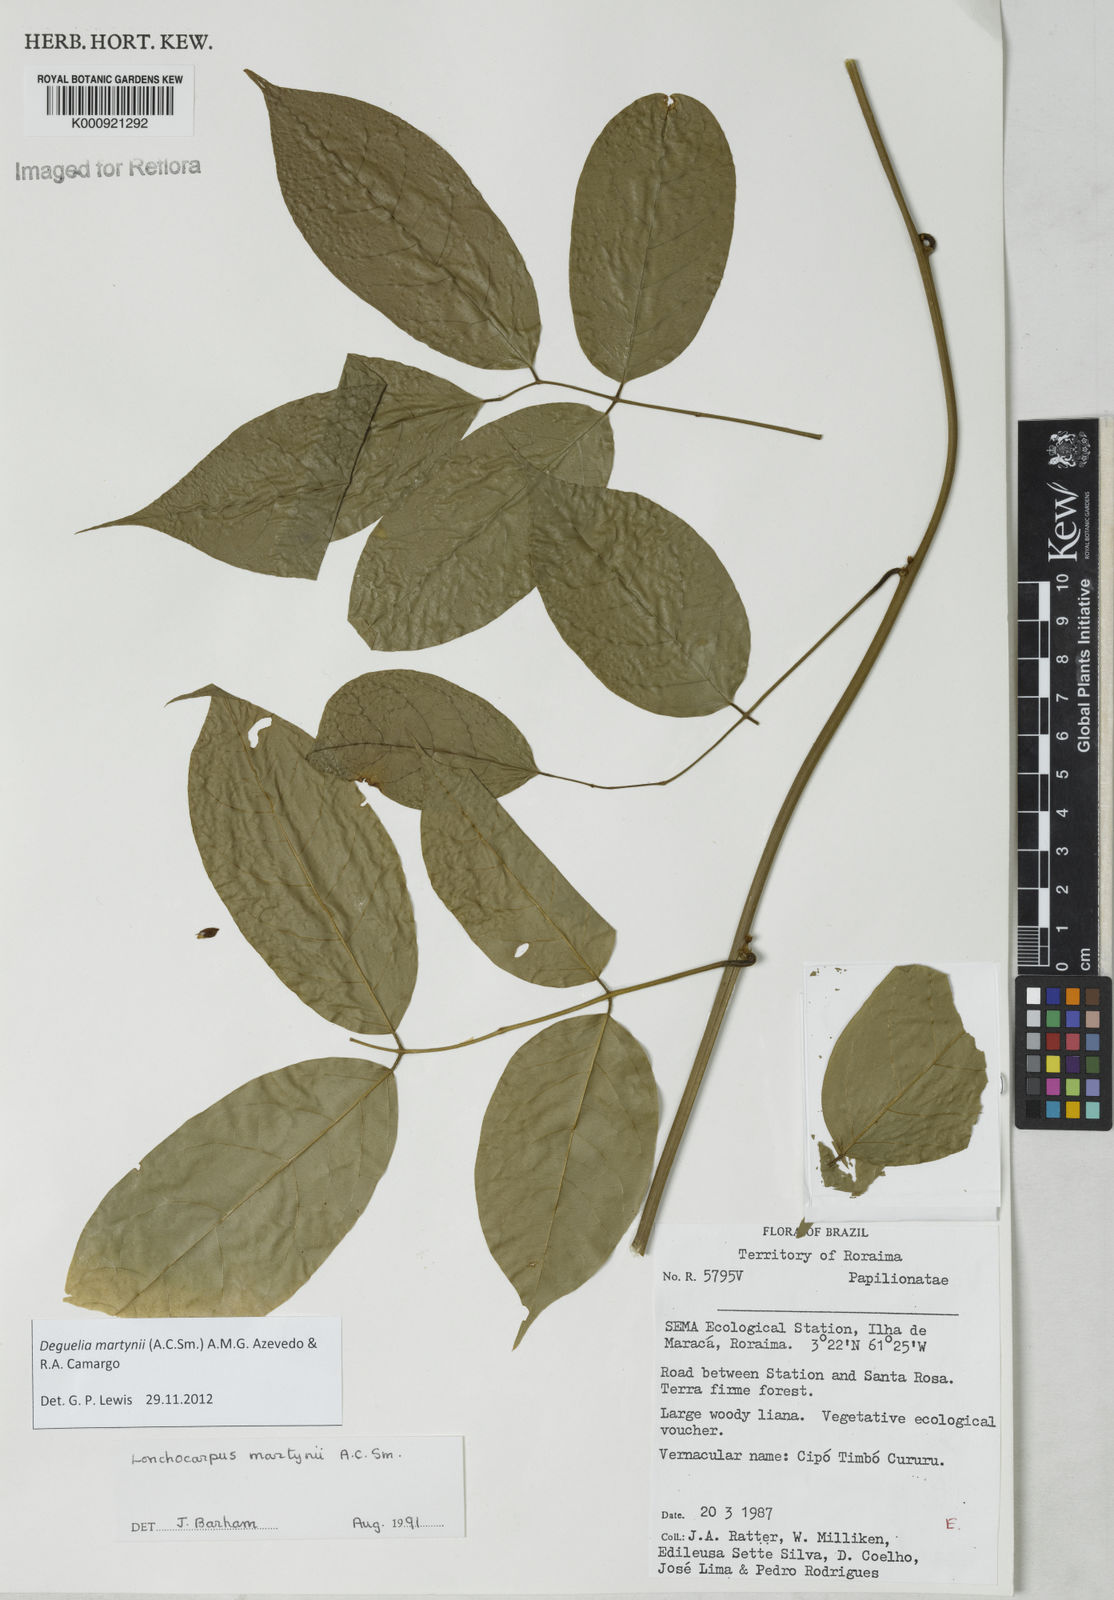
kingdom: Plantae
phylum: Tracheophyta
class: Magnoliopsida
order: Fabales
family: Fabaceae
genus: Deguelia
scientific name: Deguelia
